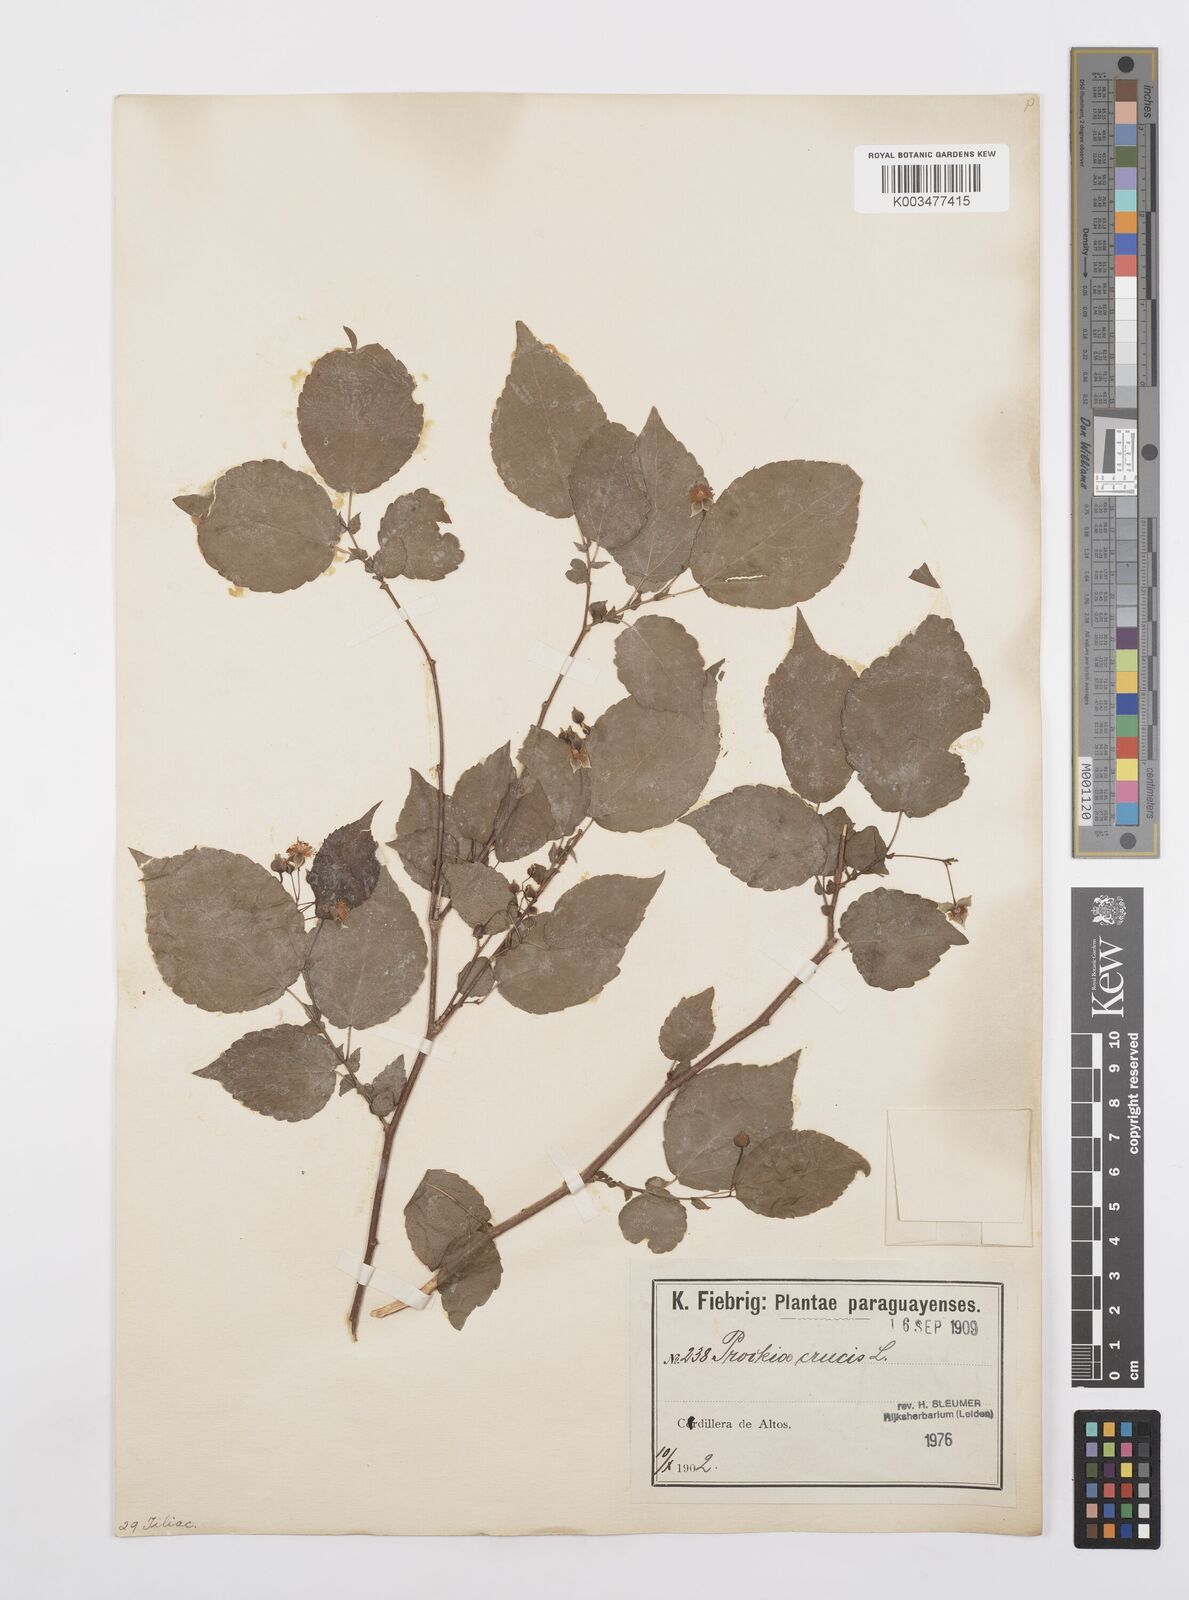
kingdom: Plantae
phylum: Tracheophyta
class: Magnoliopsida
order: Malpighiales
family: Salicaceae
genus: Prockia
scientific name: Prockia crucis
